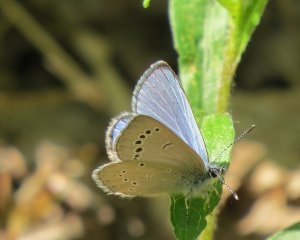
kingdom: Animalia
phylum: Arthropoda
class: Insecta
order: Lepidoptera
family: Lycaenidae
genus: Glaucopsyche
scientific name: Glaucopsyche lygdamus
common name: Silvery Blue
